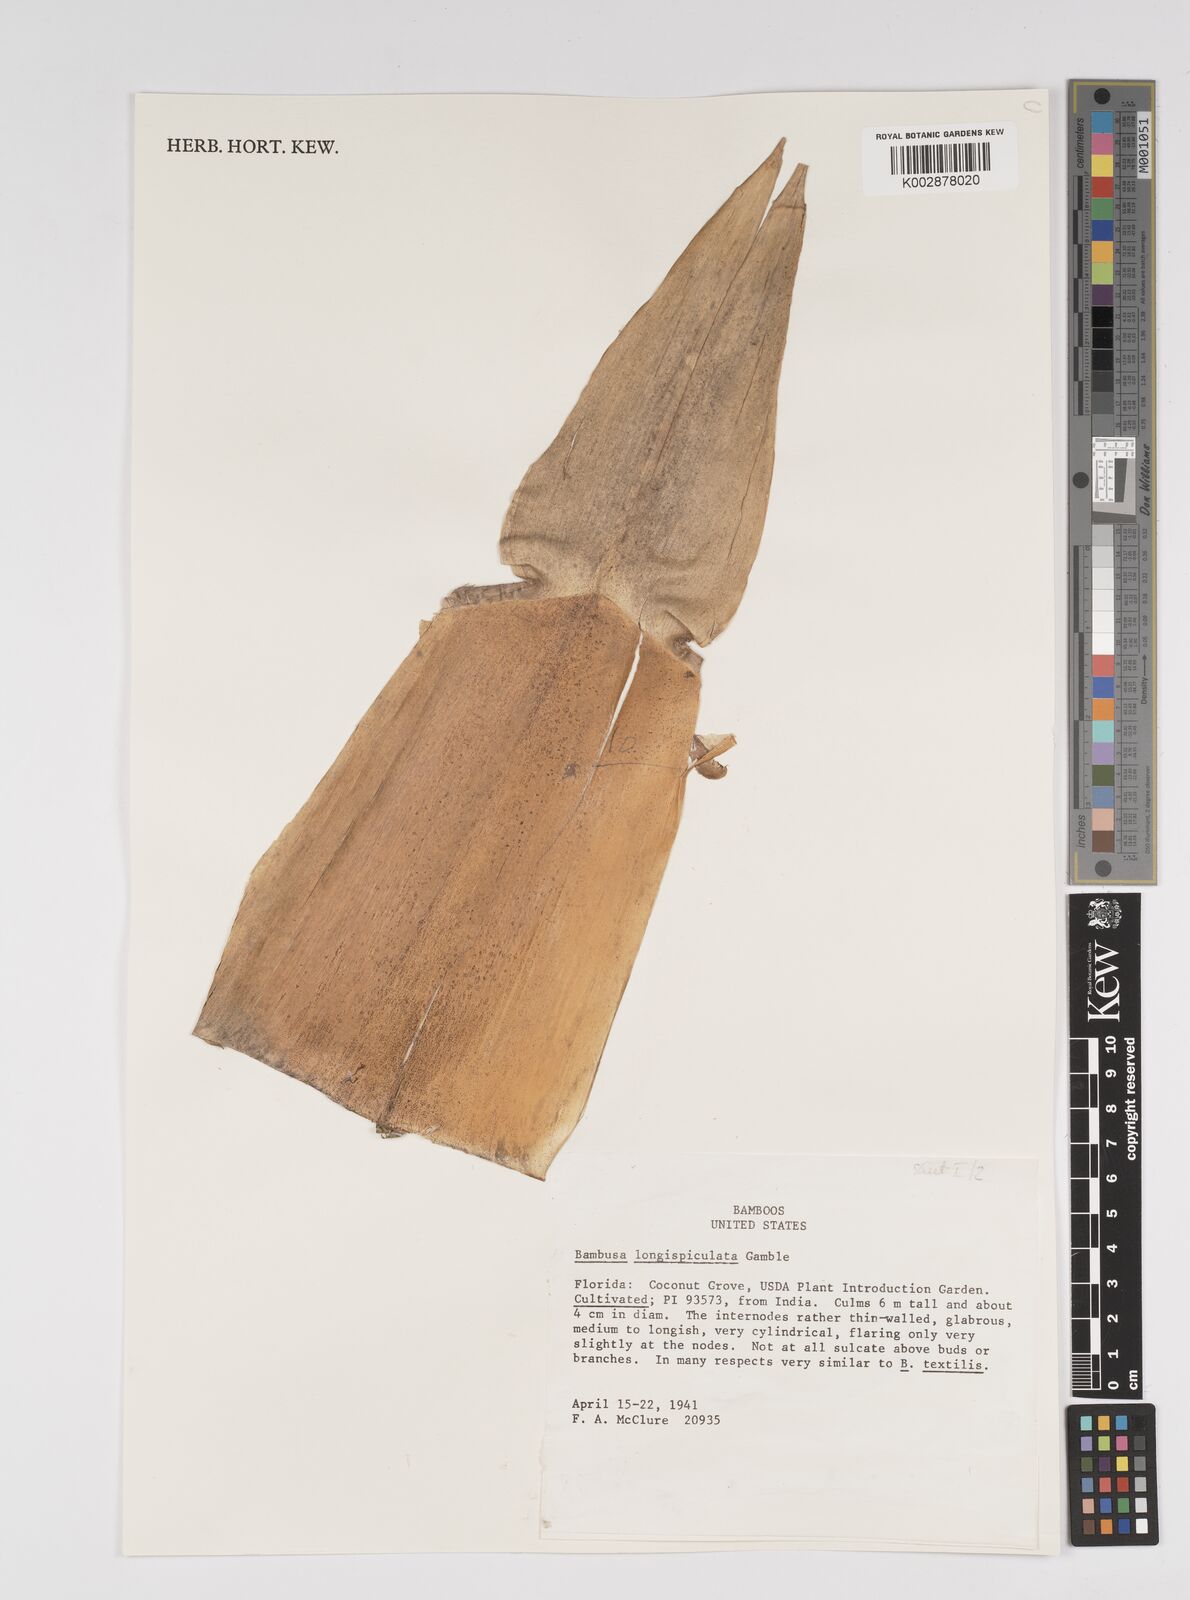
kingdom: Plantae
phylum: Tracheophyta
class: Liliopsida
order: Poales
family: Poaceae
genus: Bambusa
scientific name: Bambusa longispiculata
